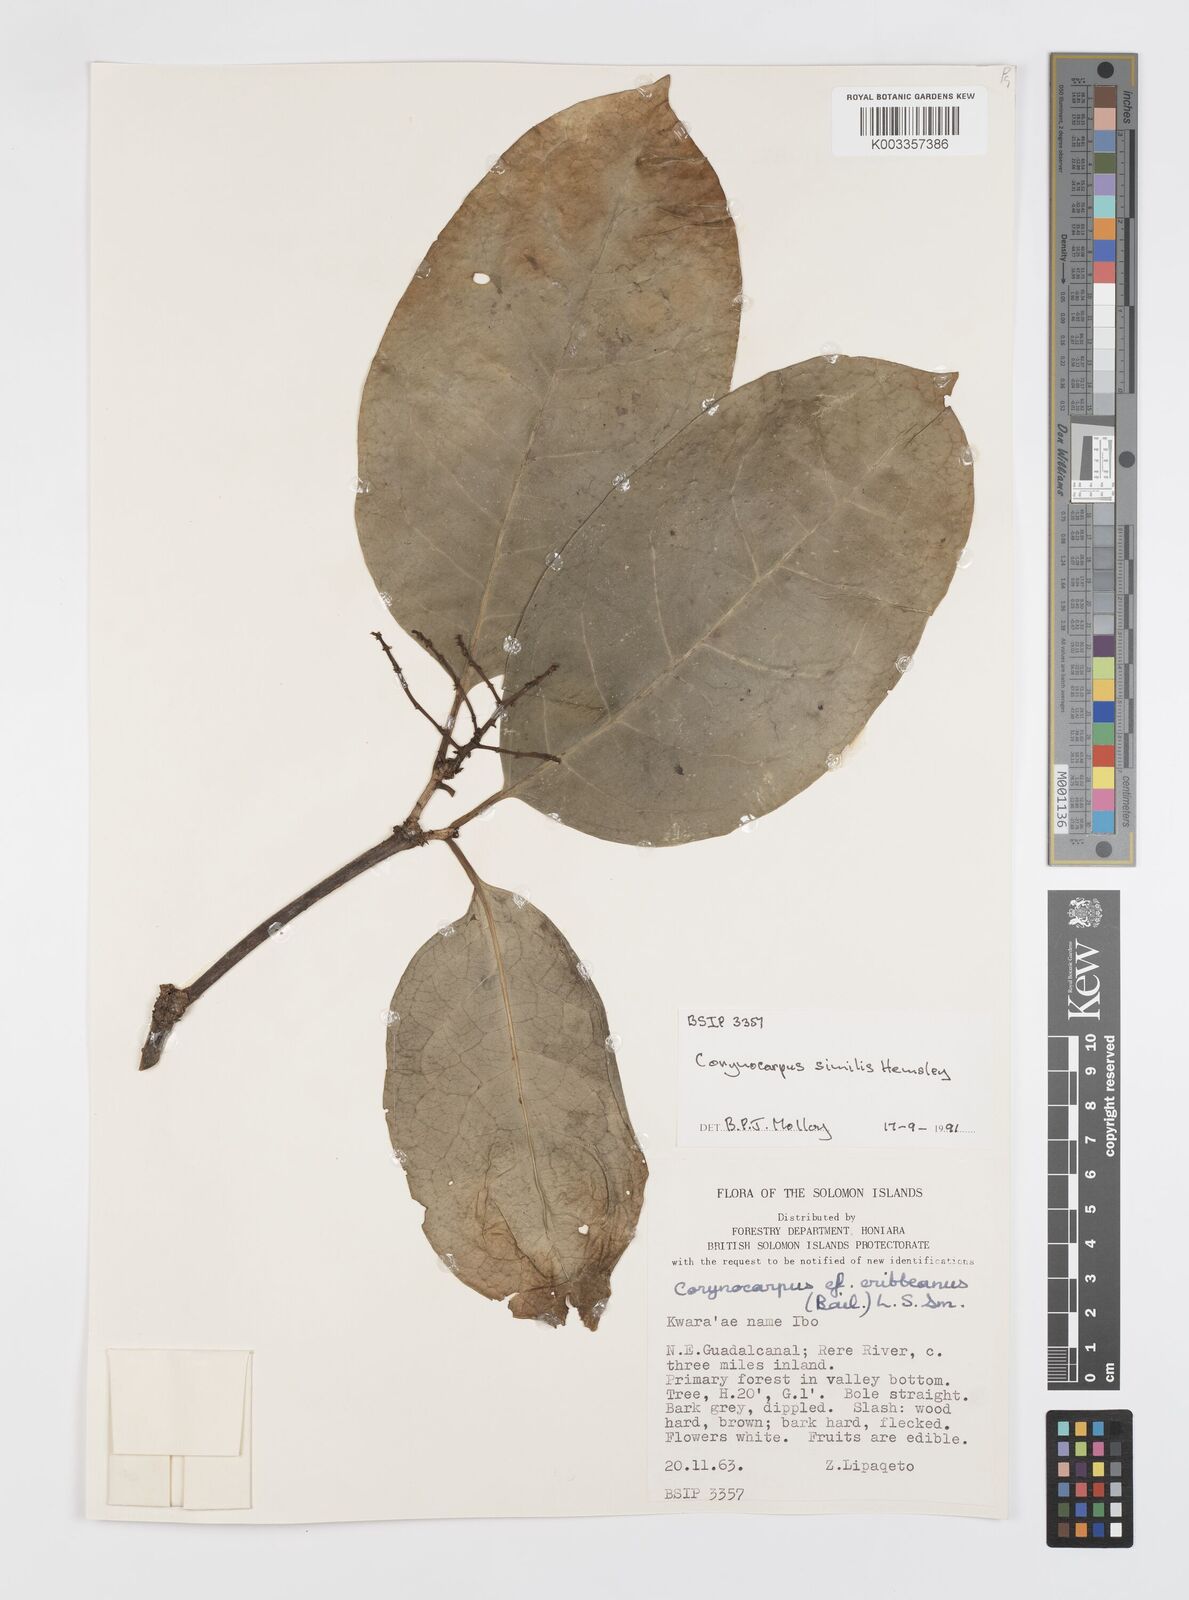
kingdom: Plantae
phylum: Tracheophyta
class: Magnoliopsida
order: Cucurbitales
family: Corynocarpaceae
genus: Corynocarpus
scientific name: Corynocarpus similis
